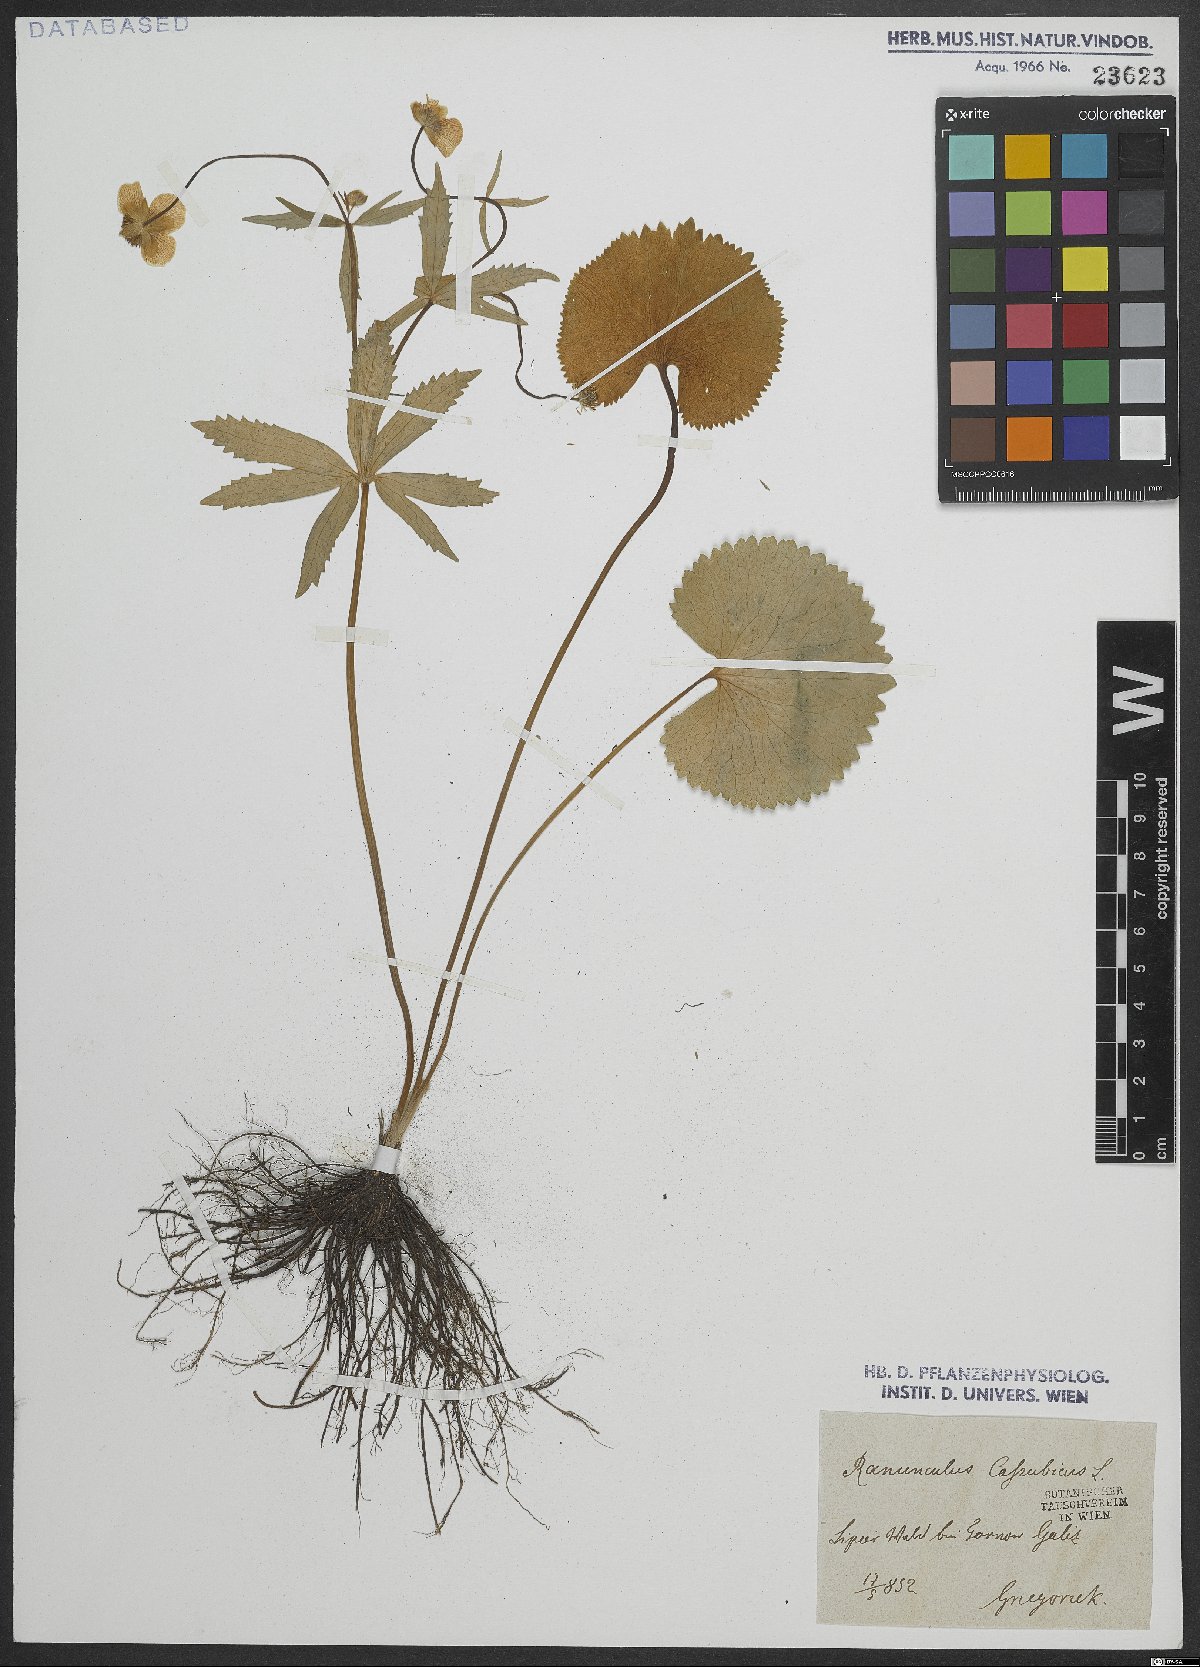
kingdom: Plantae
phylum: Tracheophyta
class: Magnoliopsida
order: Ranunculales
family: Ranunculaceae
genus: Ranunculus
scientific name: Ranunculus cassubicus
